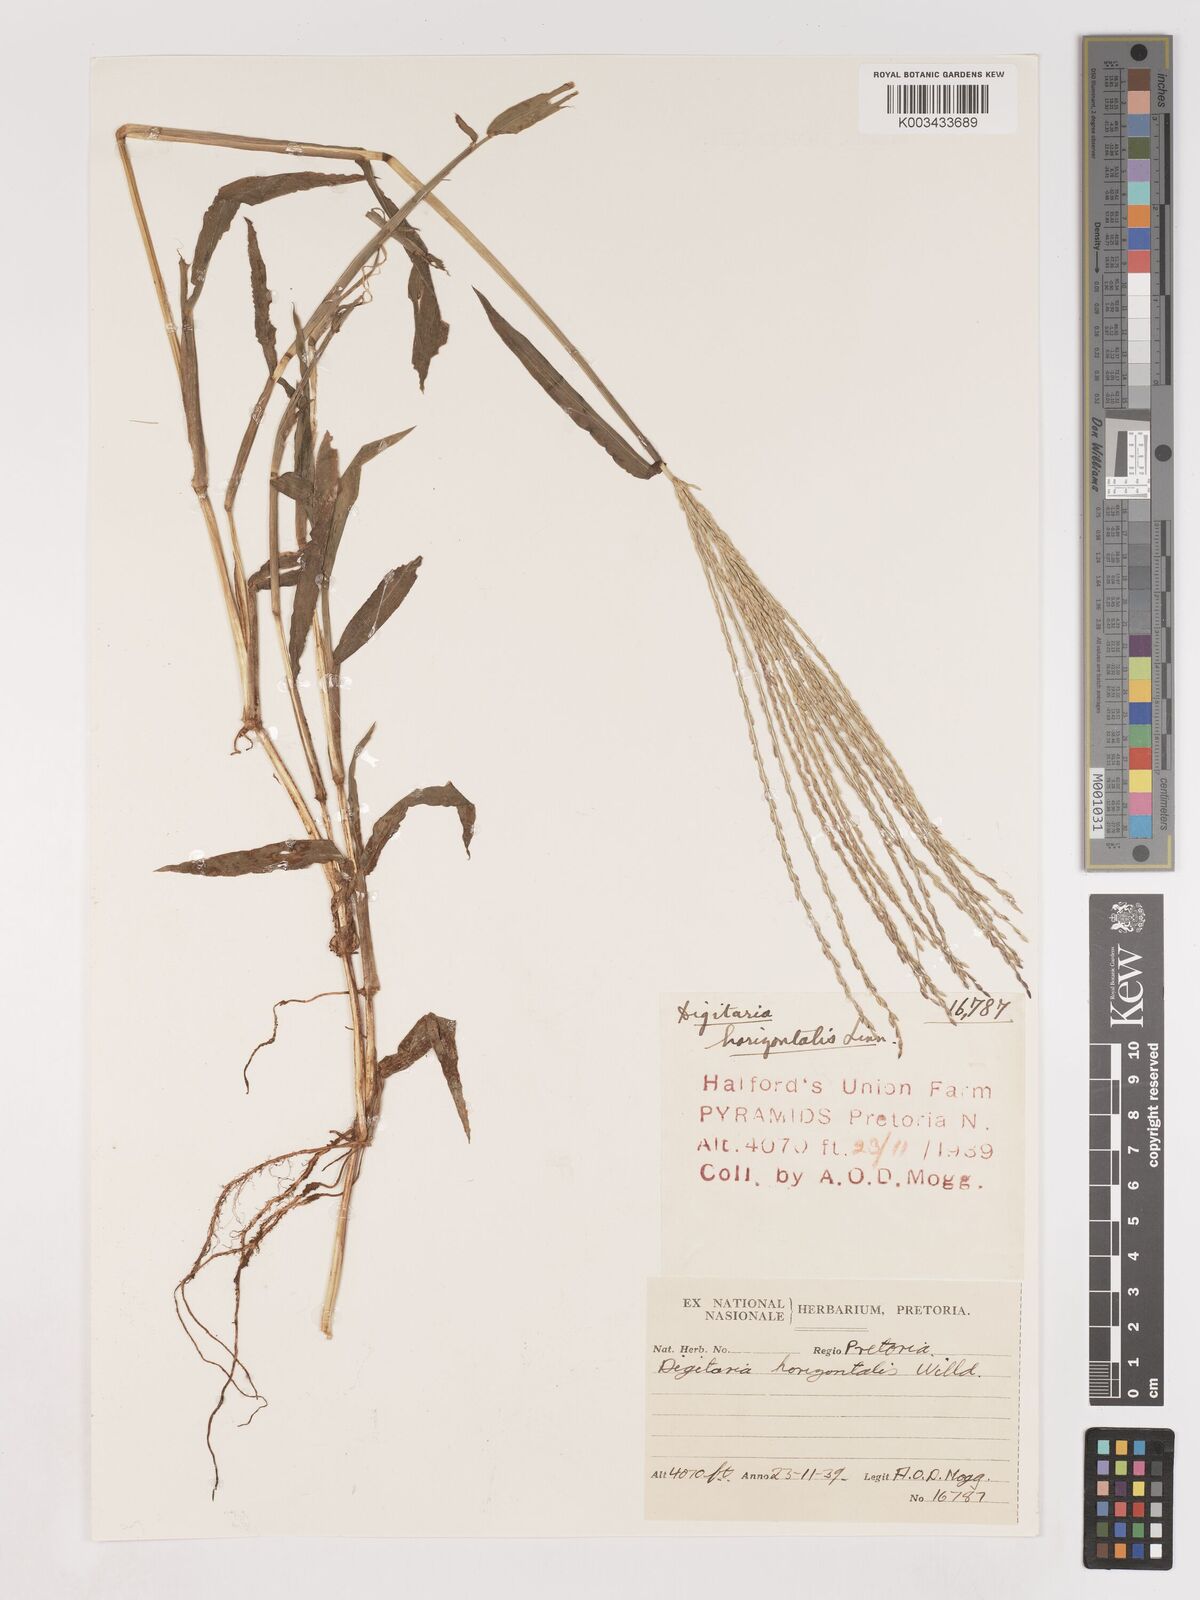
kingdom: Plantae
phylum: Tracheophyta
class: Liliopsida
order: Poales
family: Poaceae
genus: Digitaria
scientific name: Digitaria sanguinalis
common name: Hairy crabgrass
